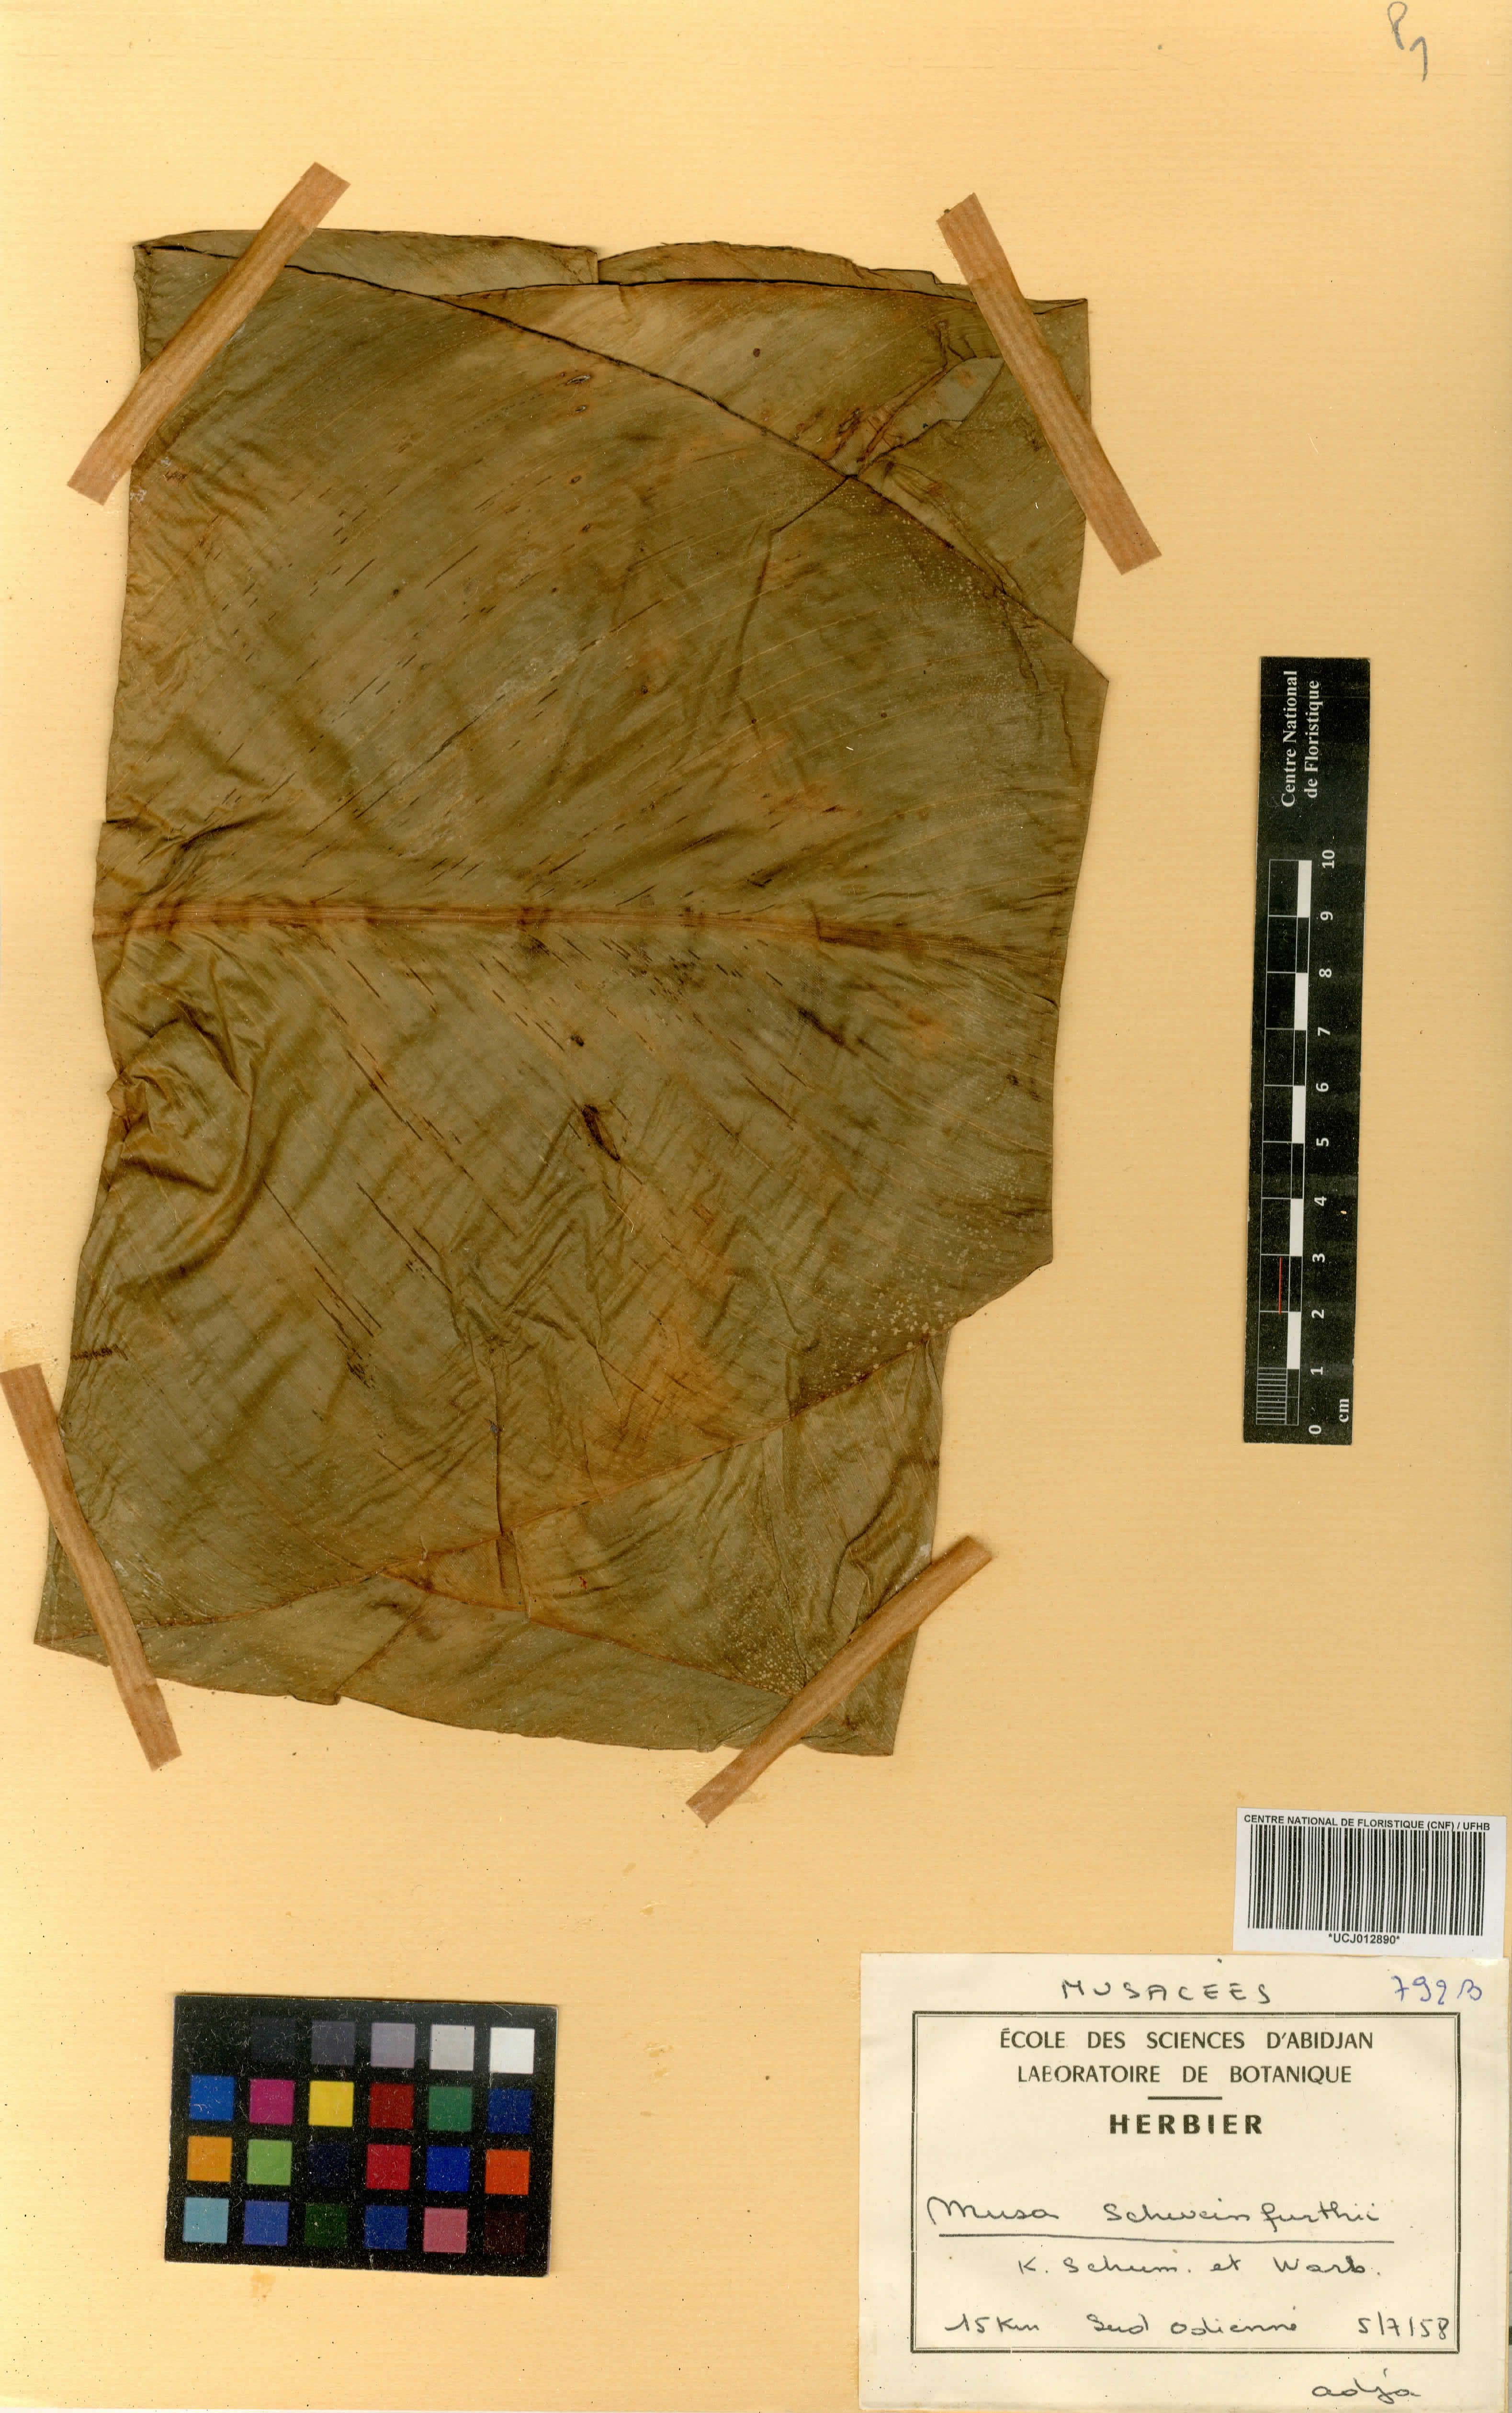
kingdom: Plantae
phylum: Tracheophyta
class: Liliopsida
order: Zingiberales
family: Musaceae
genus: Ensete
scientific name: Ensete ventricosum
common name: Abyssinian banana
